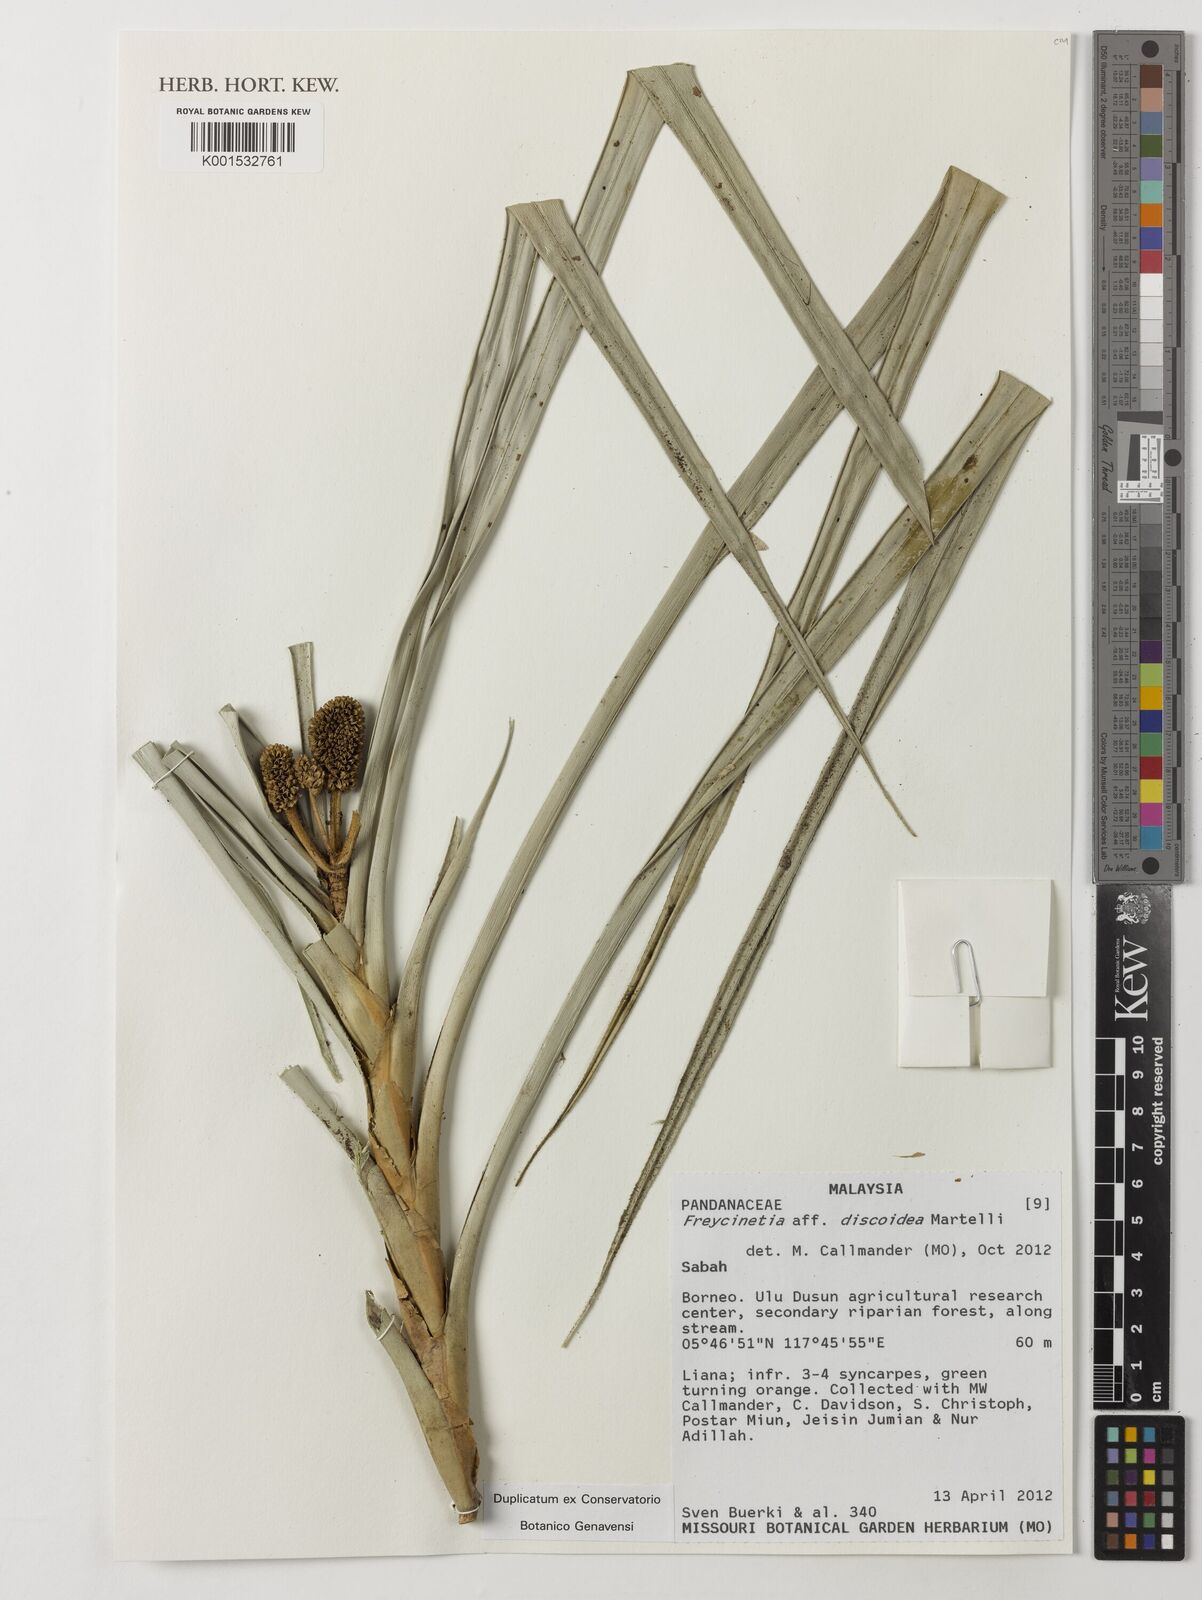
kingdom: Plantae
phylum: Tracheophyta
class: Liliopsida
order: Pandanales
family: Pandanaceae
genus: Freycinetia
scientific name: Freycinetia discoidea
